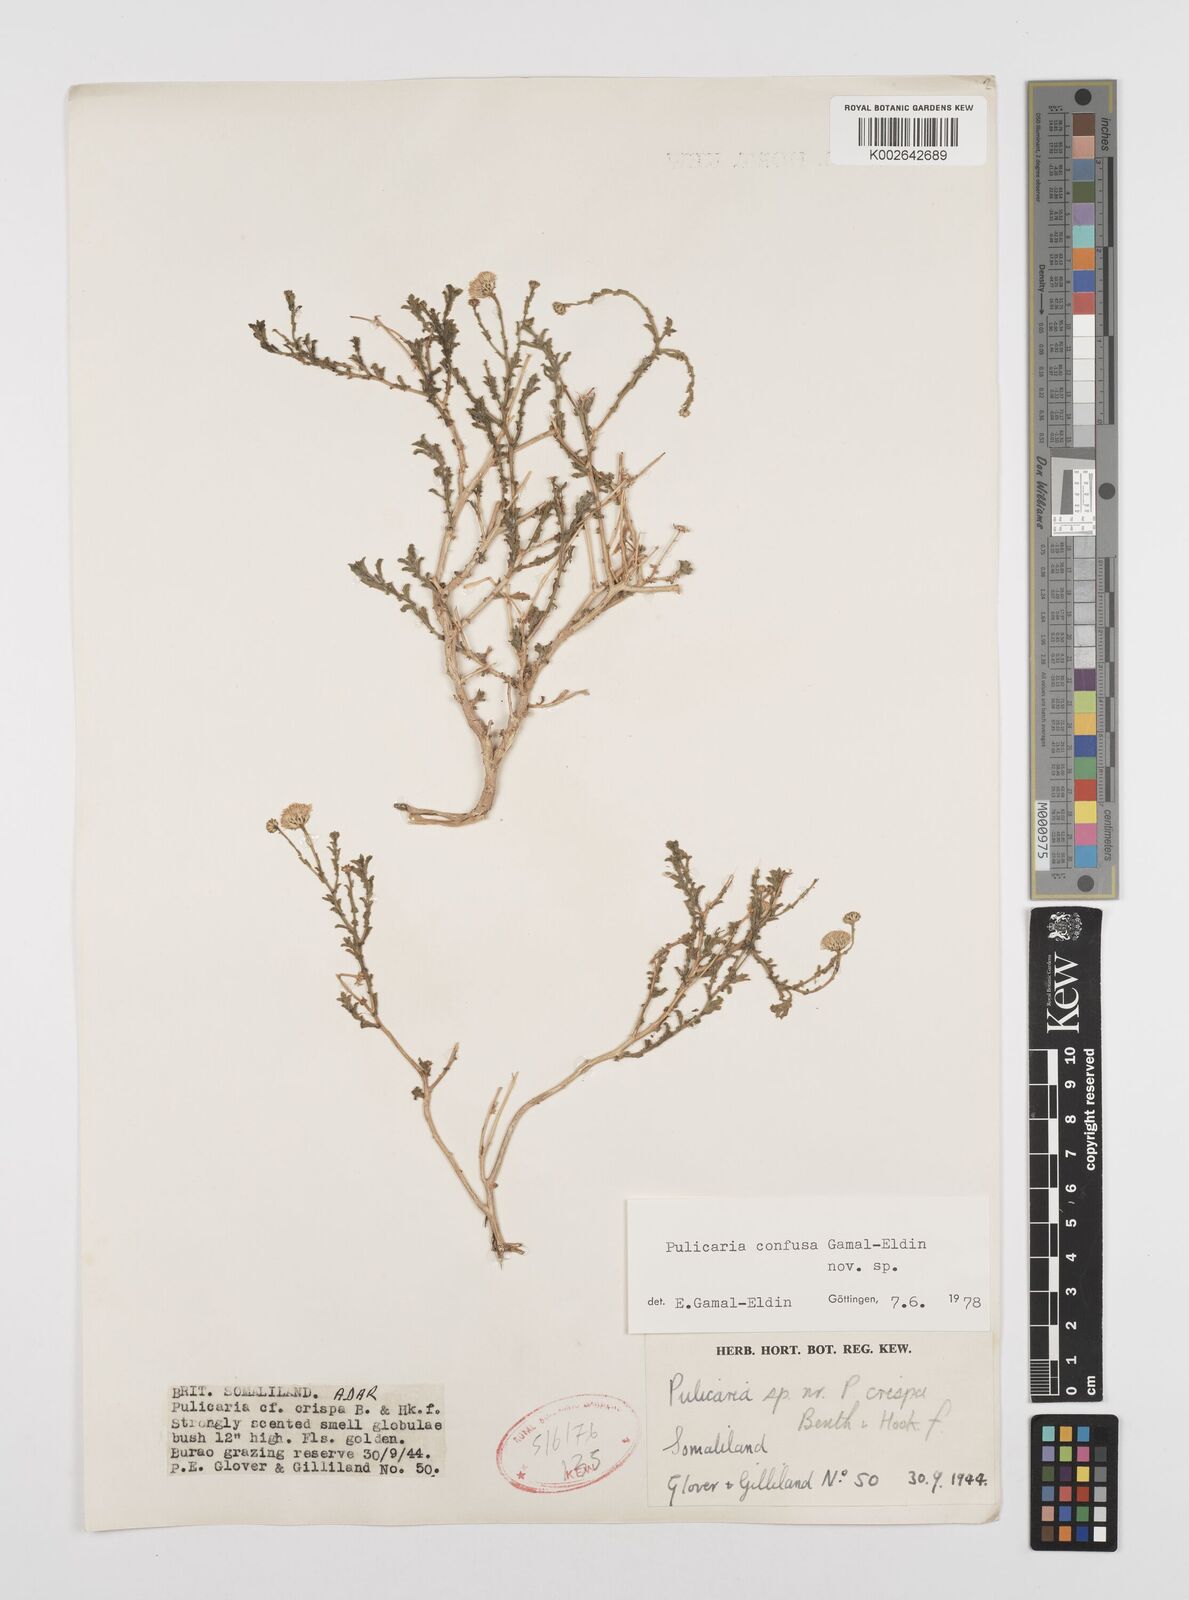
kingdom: Plantae
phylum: Tracheophyta
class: Magnoliopsida
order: Asterales
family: Asteraceae
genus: Pulicaria
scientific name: Pulicaria confusa
